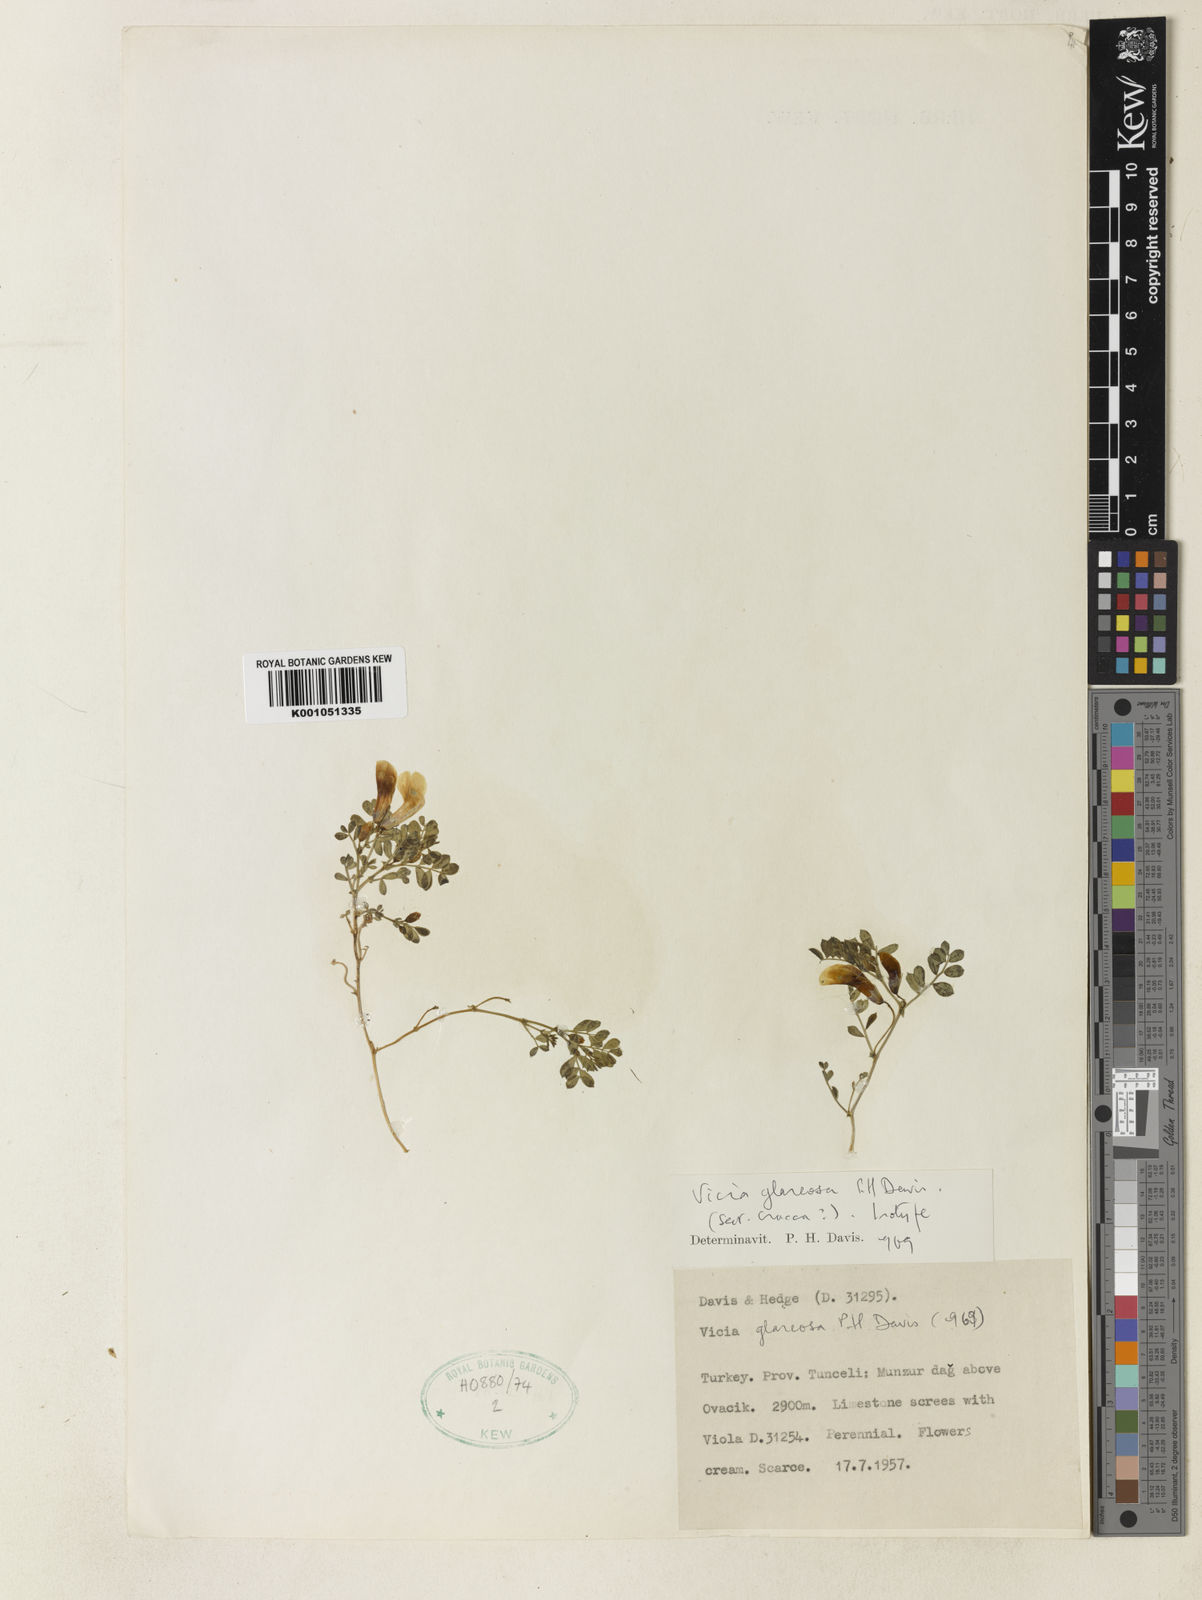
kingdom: Plantae
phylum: Tracheophyta
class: Magnoliopsida
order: Fabales
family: Fabaceae
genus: Vicia
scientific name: Vicia
